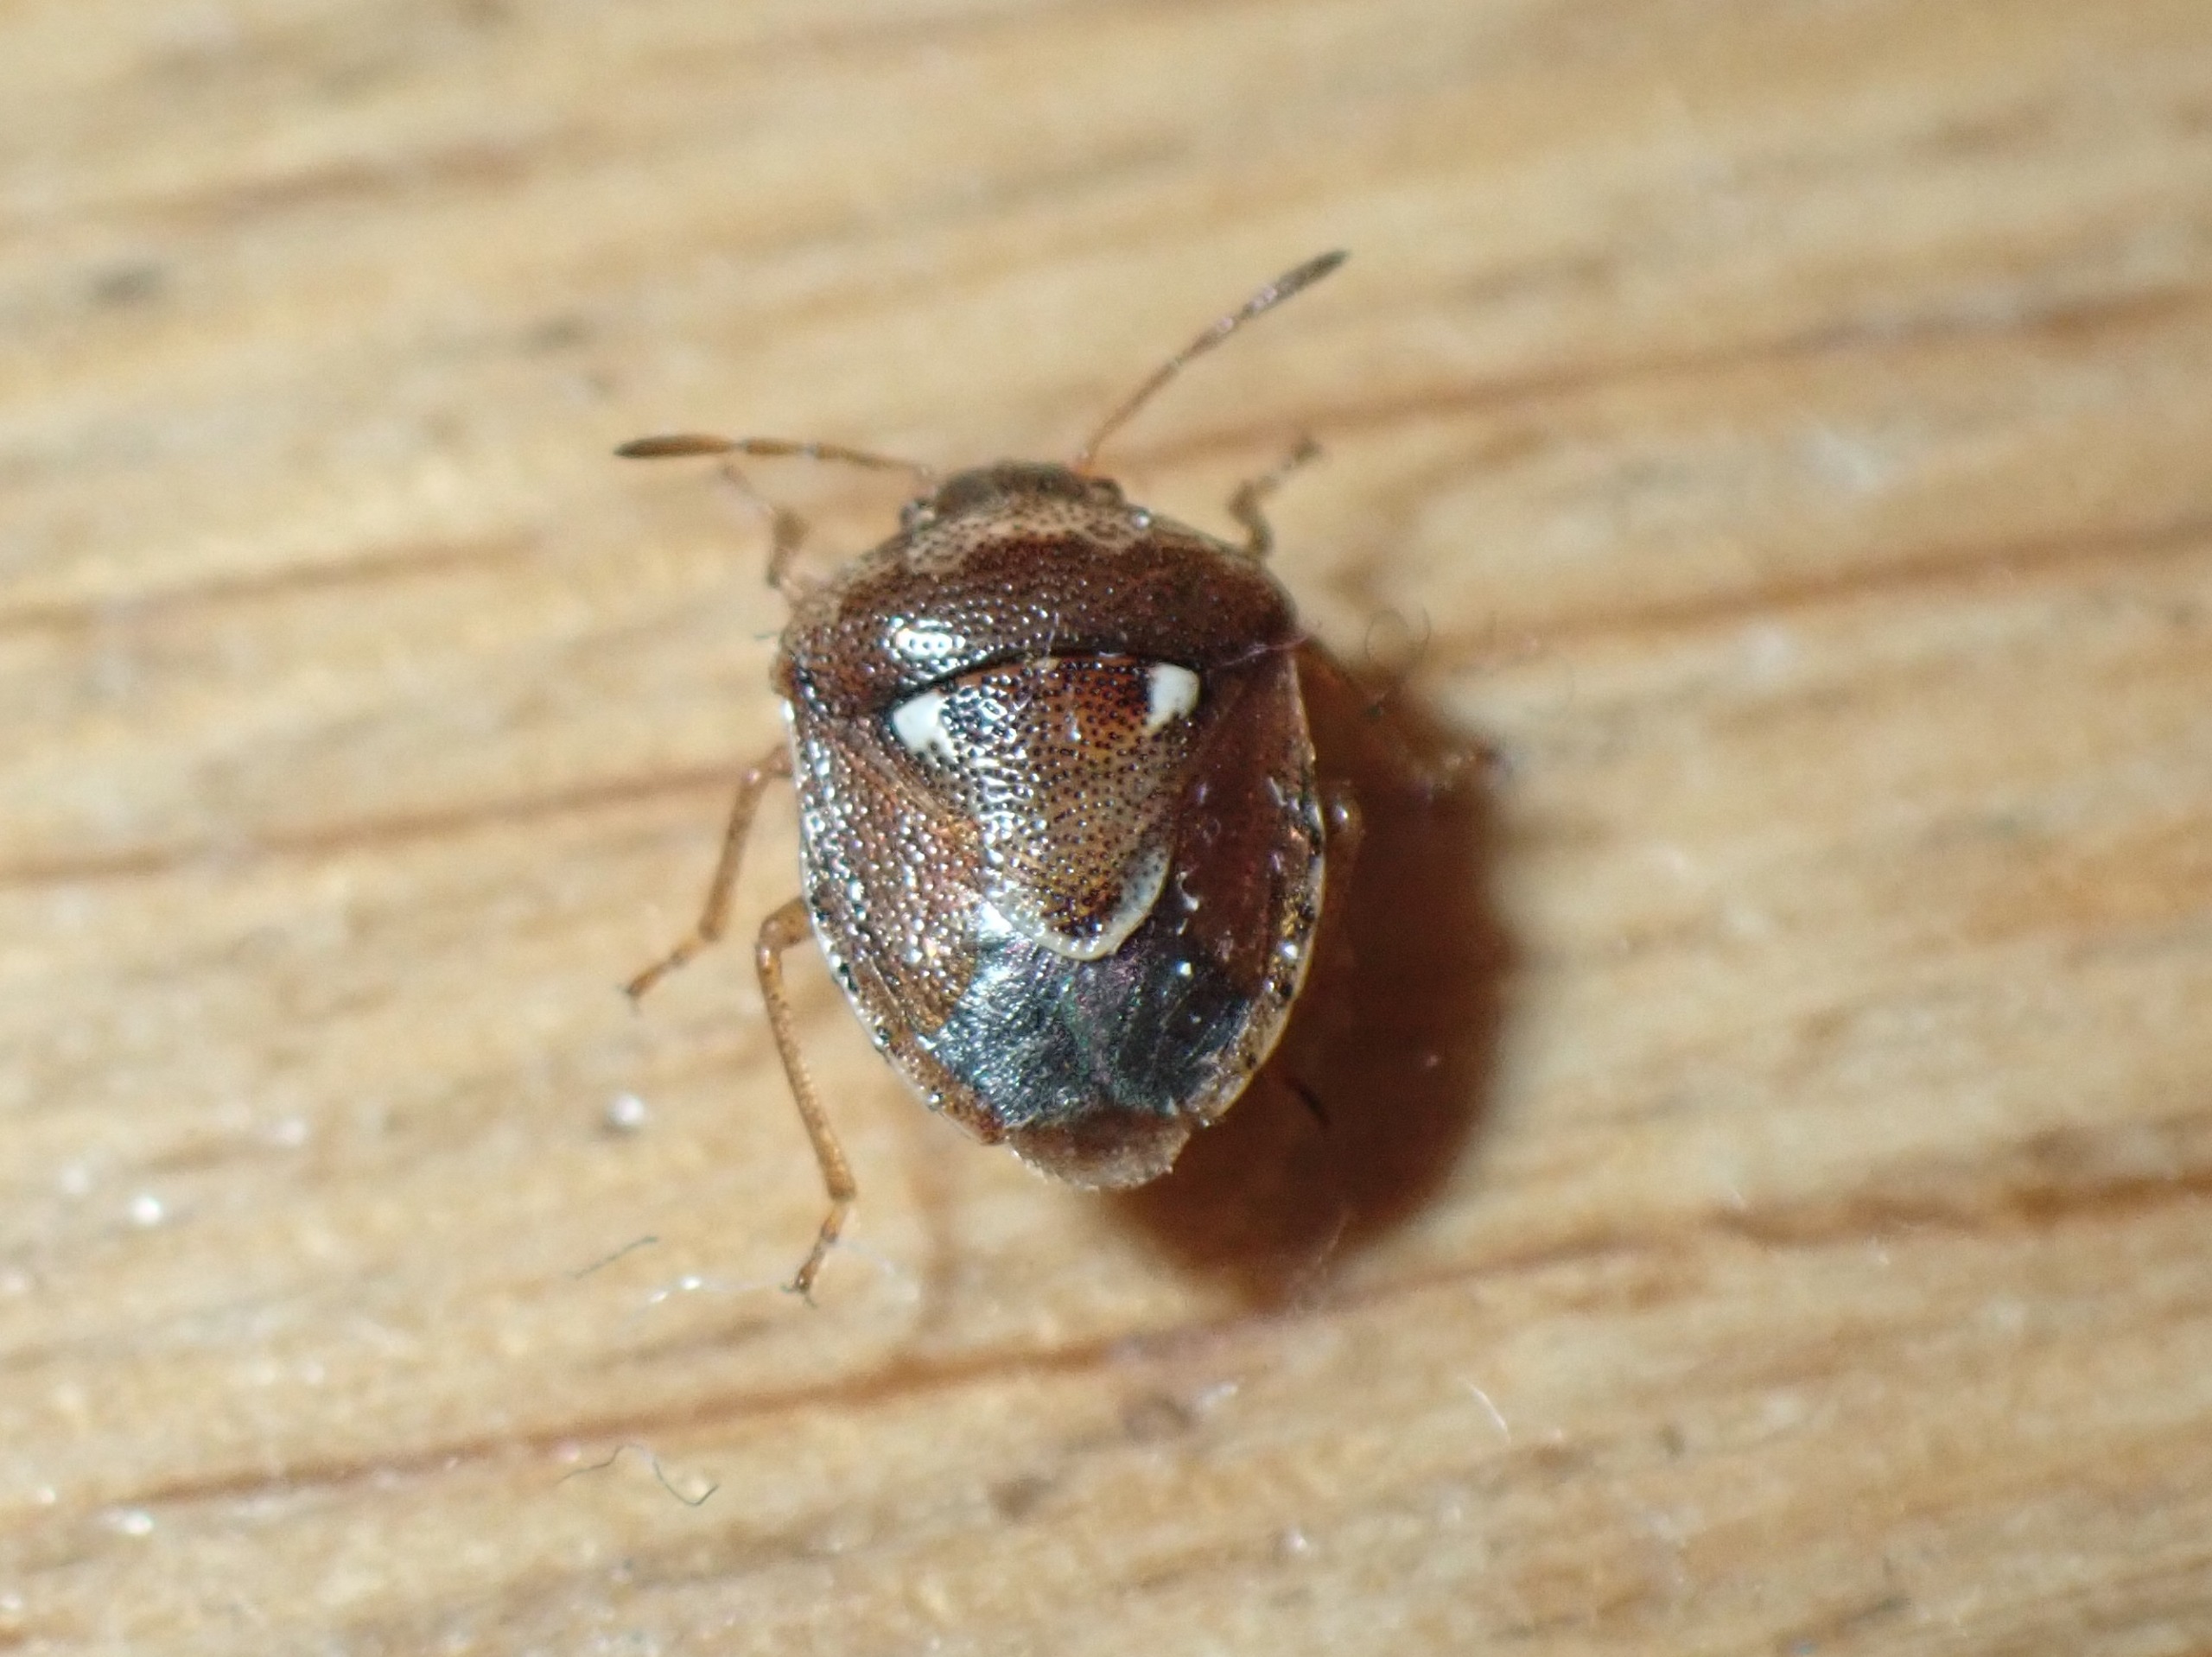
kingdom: Animalia
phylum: Arthropoda
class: Insecta
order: Hemiptera
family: Pentatomidae
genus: Stagonomus
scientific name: Stagonomus bipunctatus
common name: Toplettet urtetæge
